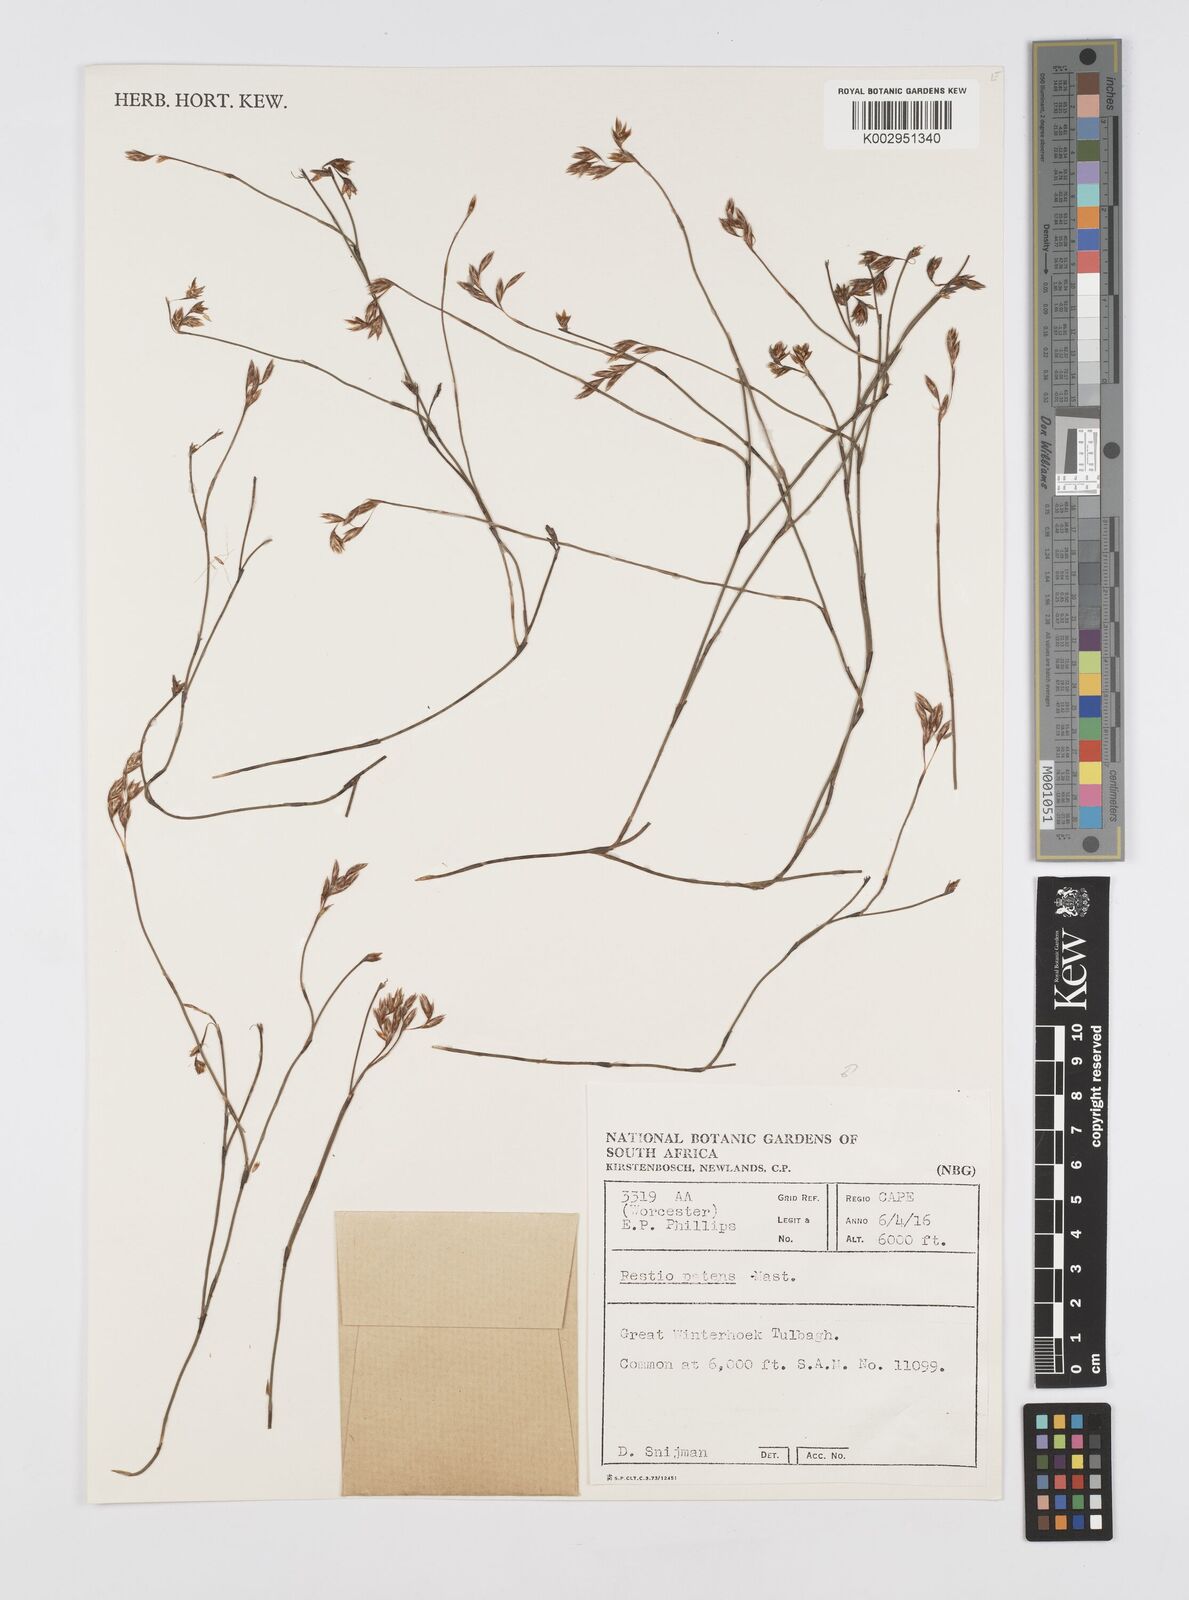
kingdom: Plantae
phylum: Tracheophyta
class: Liliopsida
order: Poales
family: Restionaceae
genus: Restio
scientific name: Restio patens
